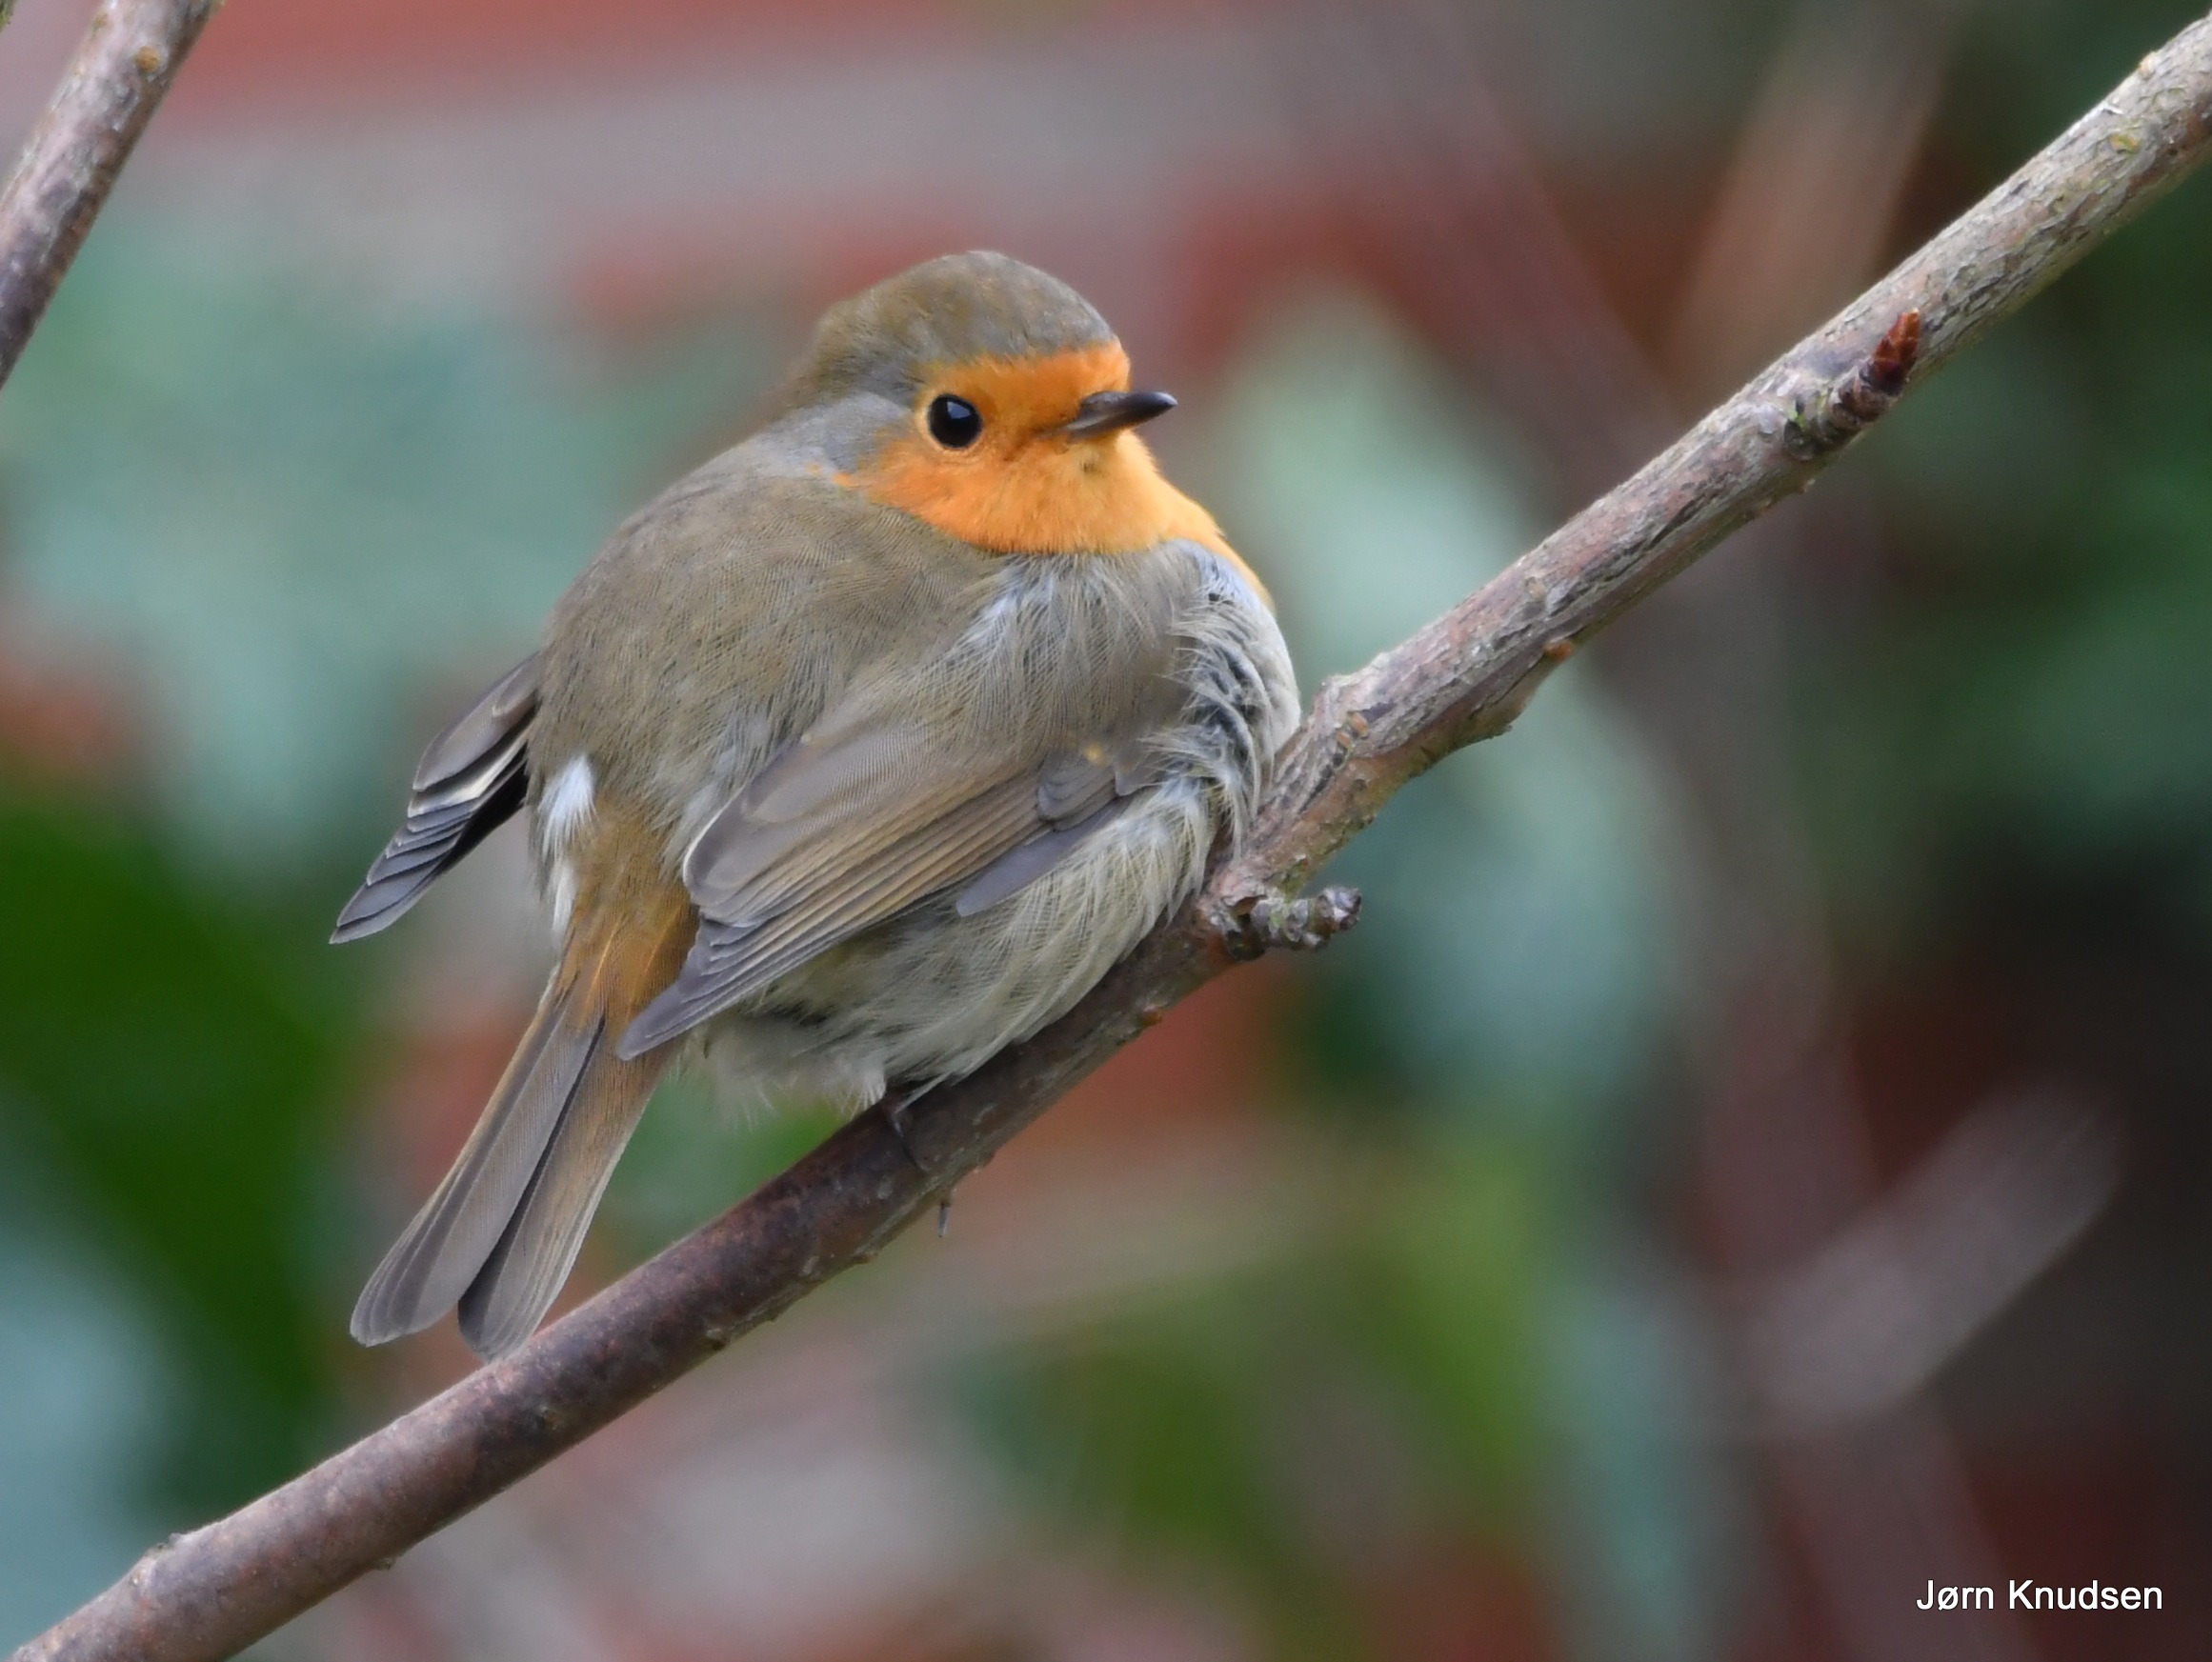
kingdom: Animalia
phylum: Chordata
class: Aves
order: Passeriformes
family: Muscicapidae
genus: Erithacus
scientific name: Erithacus rubecula
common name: Rødhals/rødkælk
